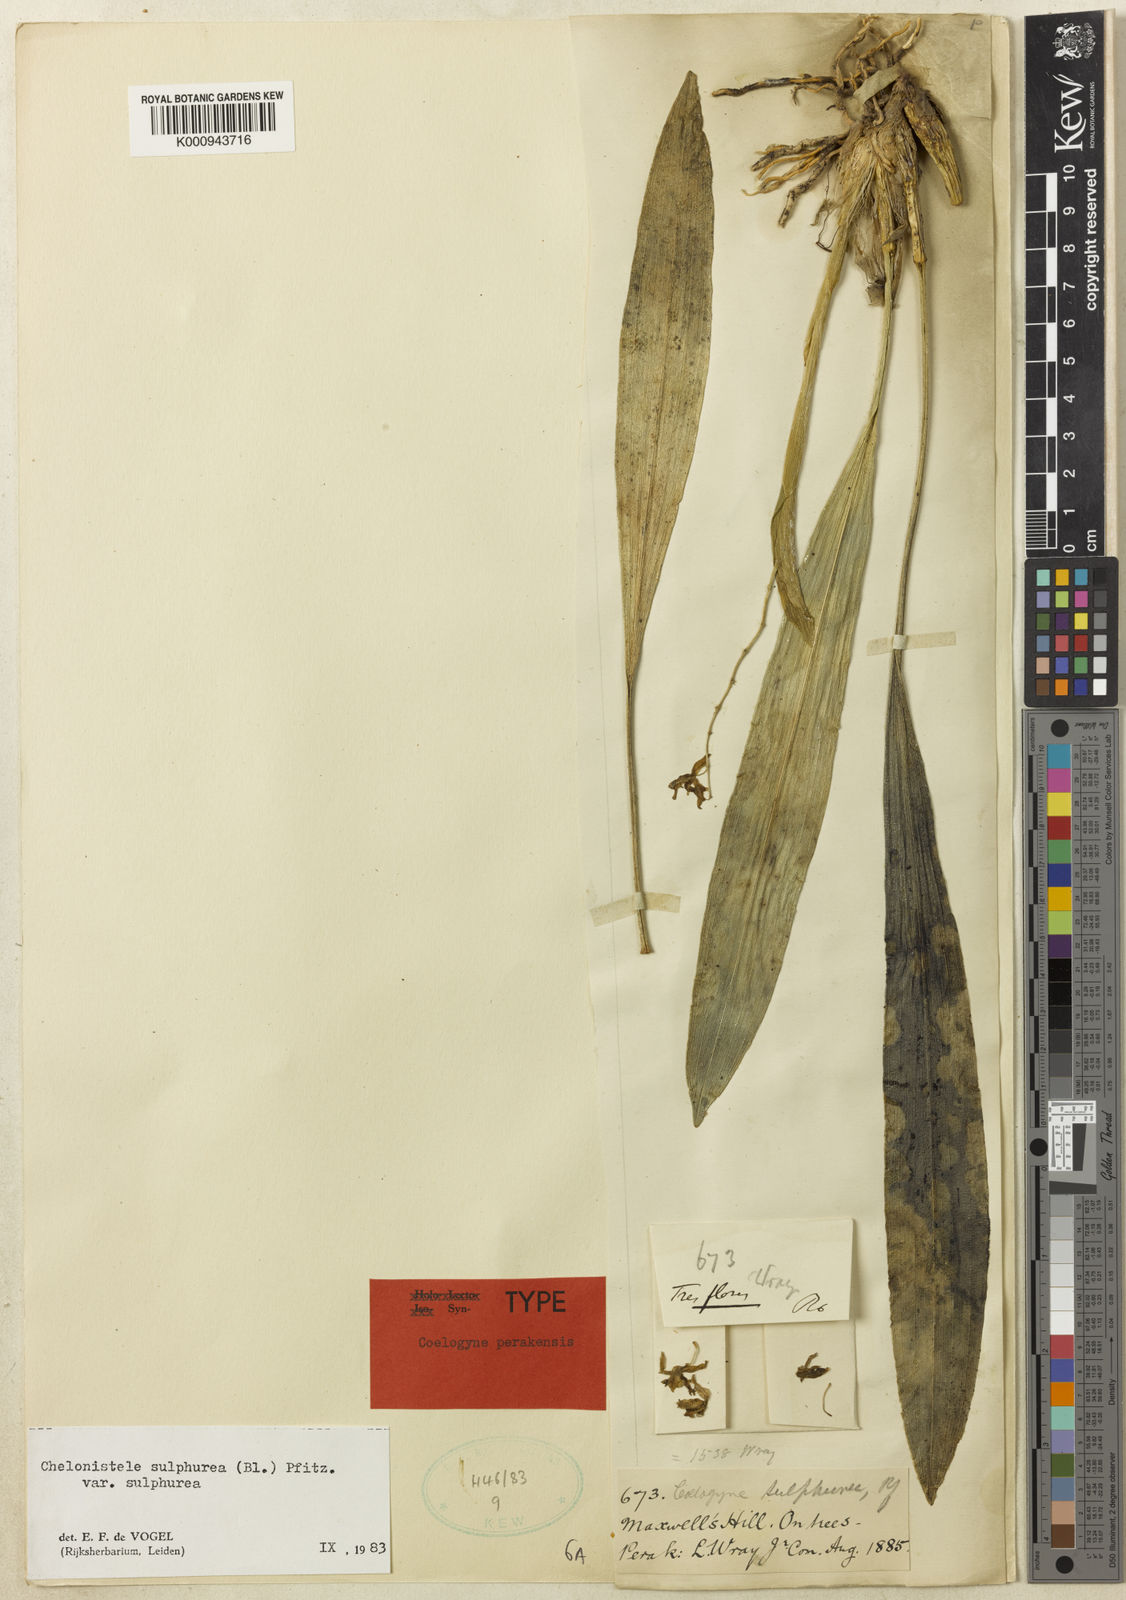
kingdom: Plantae
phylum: Tracheophyta
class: Liliopsida
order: Asparagales
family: Orchidaceae
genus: Coelogyne
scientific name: Coelogyne sulphurea
